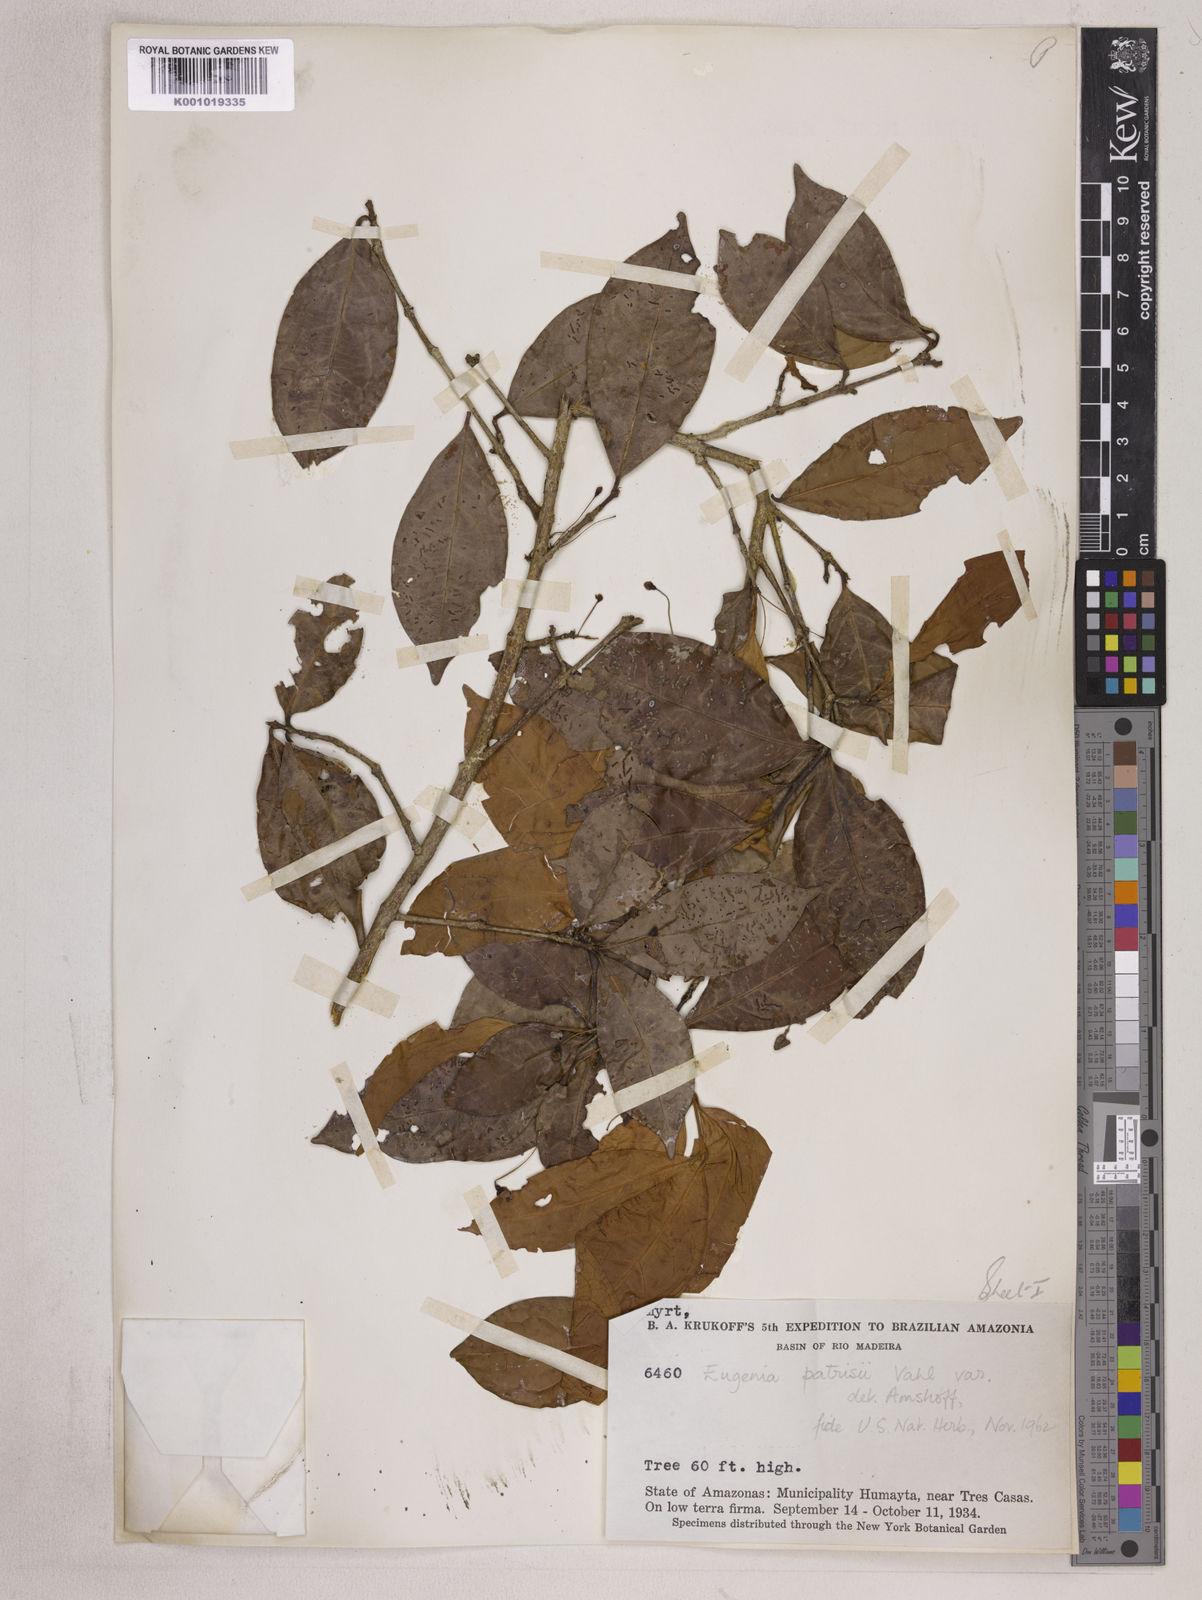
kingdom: Plantae
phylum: Tracheophyta
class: Magnoliopsida
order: Myrtales
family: Myrtaceae
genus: Eugenia
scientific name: Eugenia patrisii
